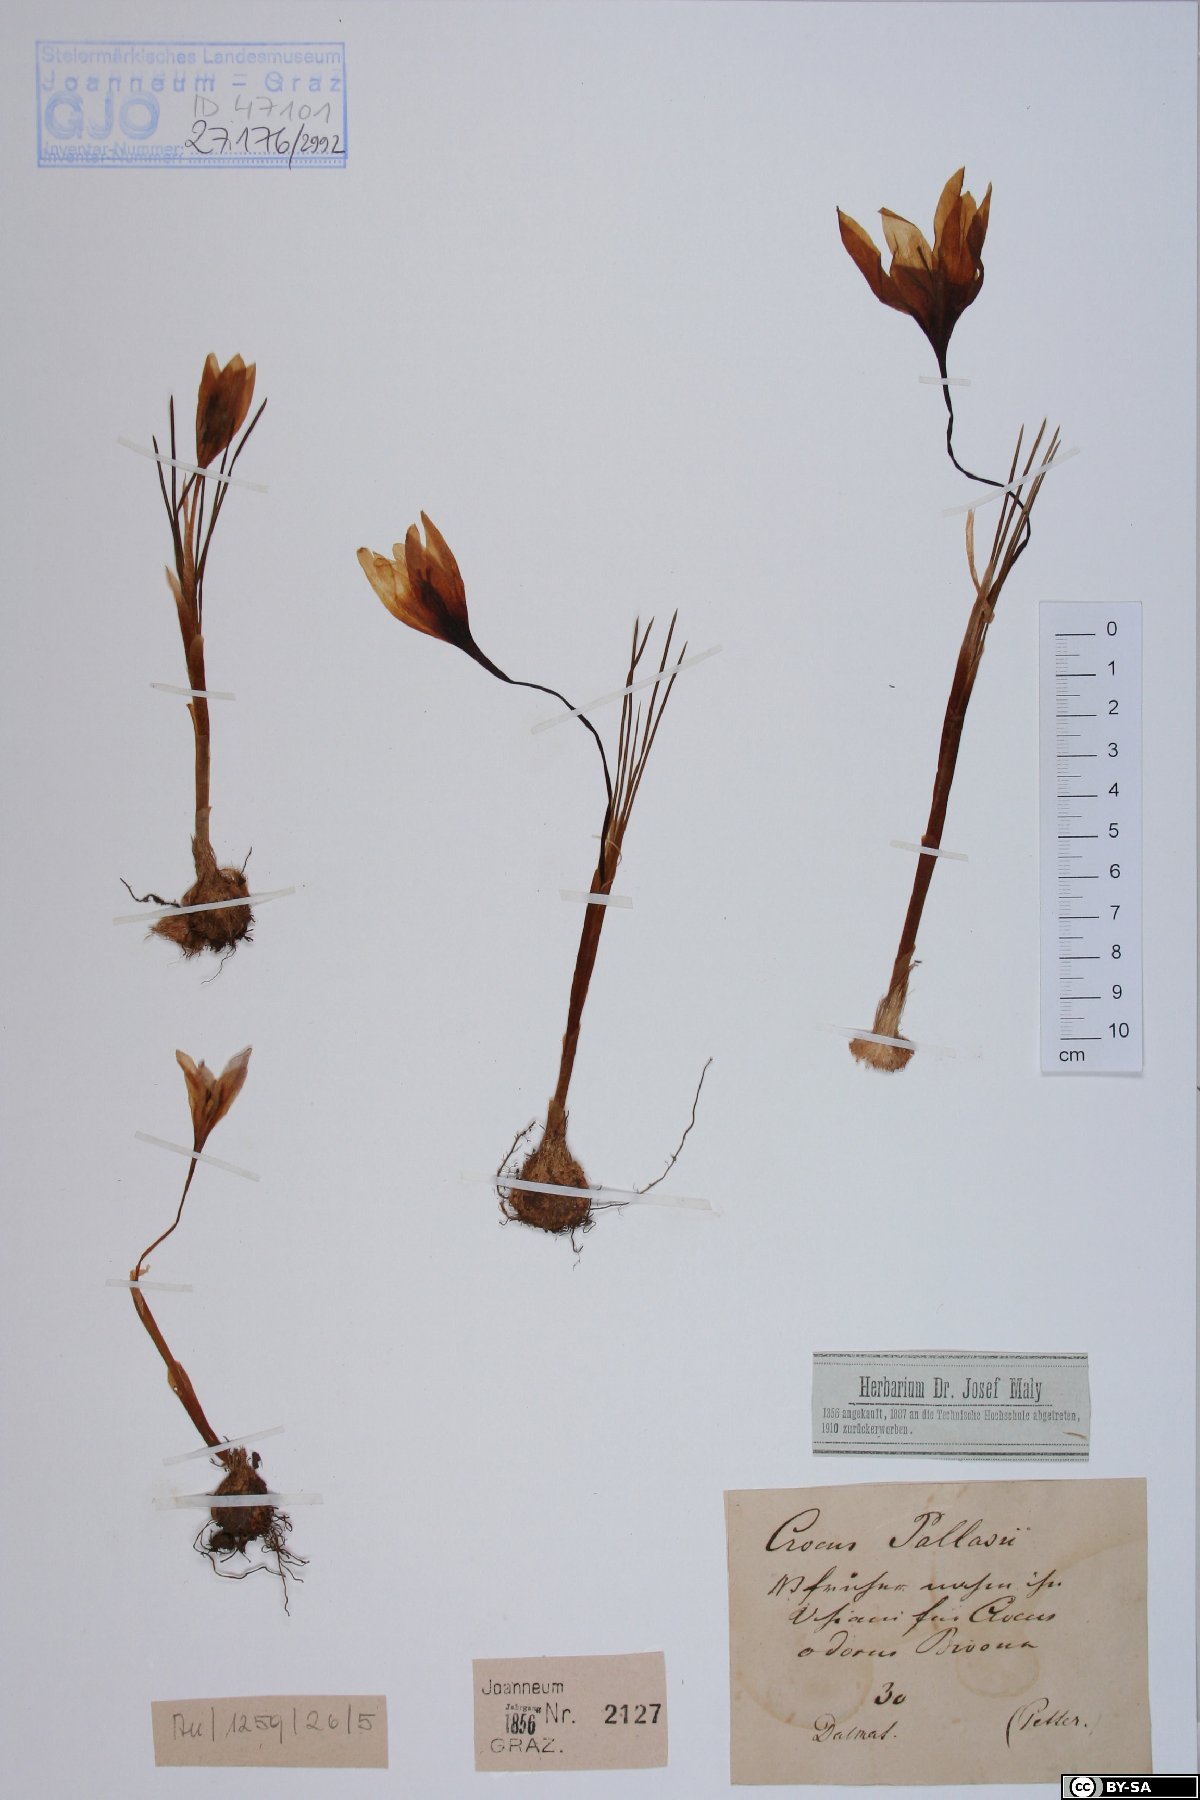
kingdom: Plantae
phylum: Tracheophyta
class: Liliopsida
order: Asparagales
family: Iridaceae
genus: Crocus
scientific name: Crocus pallasii
